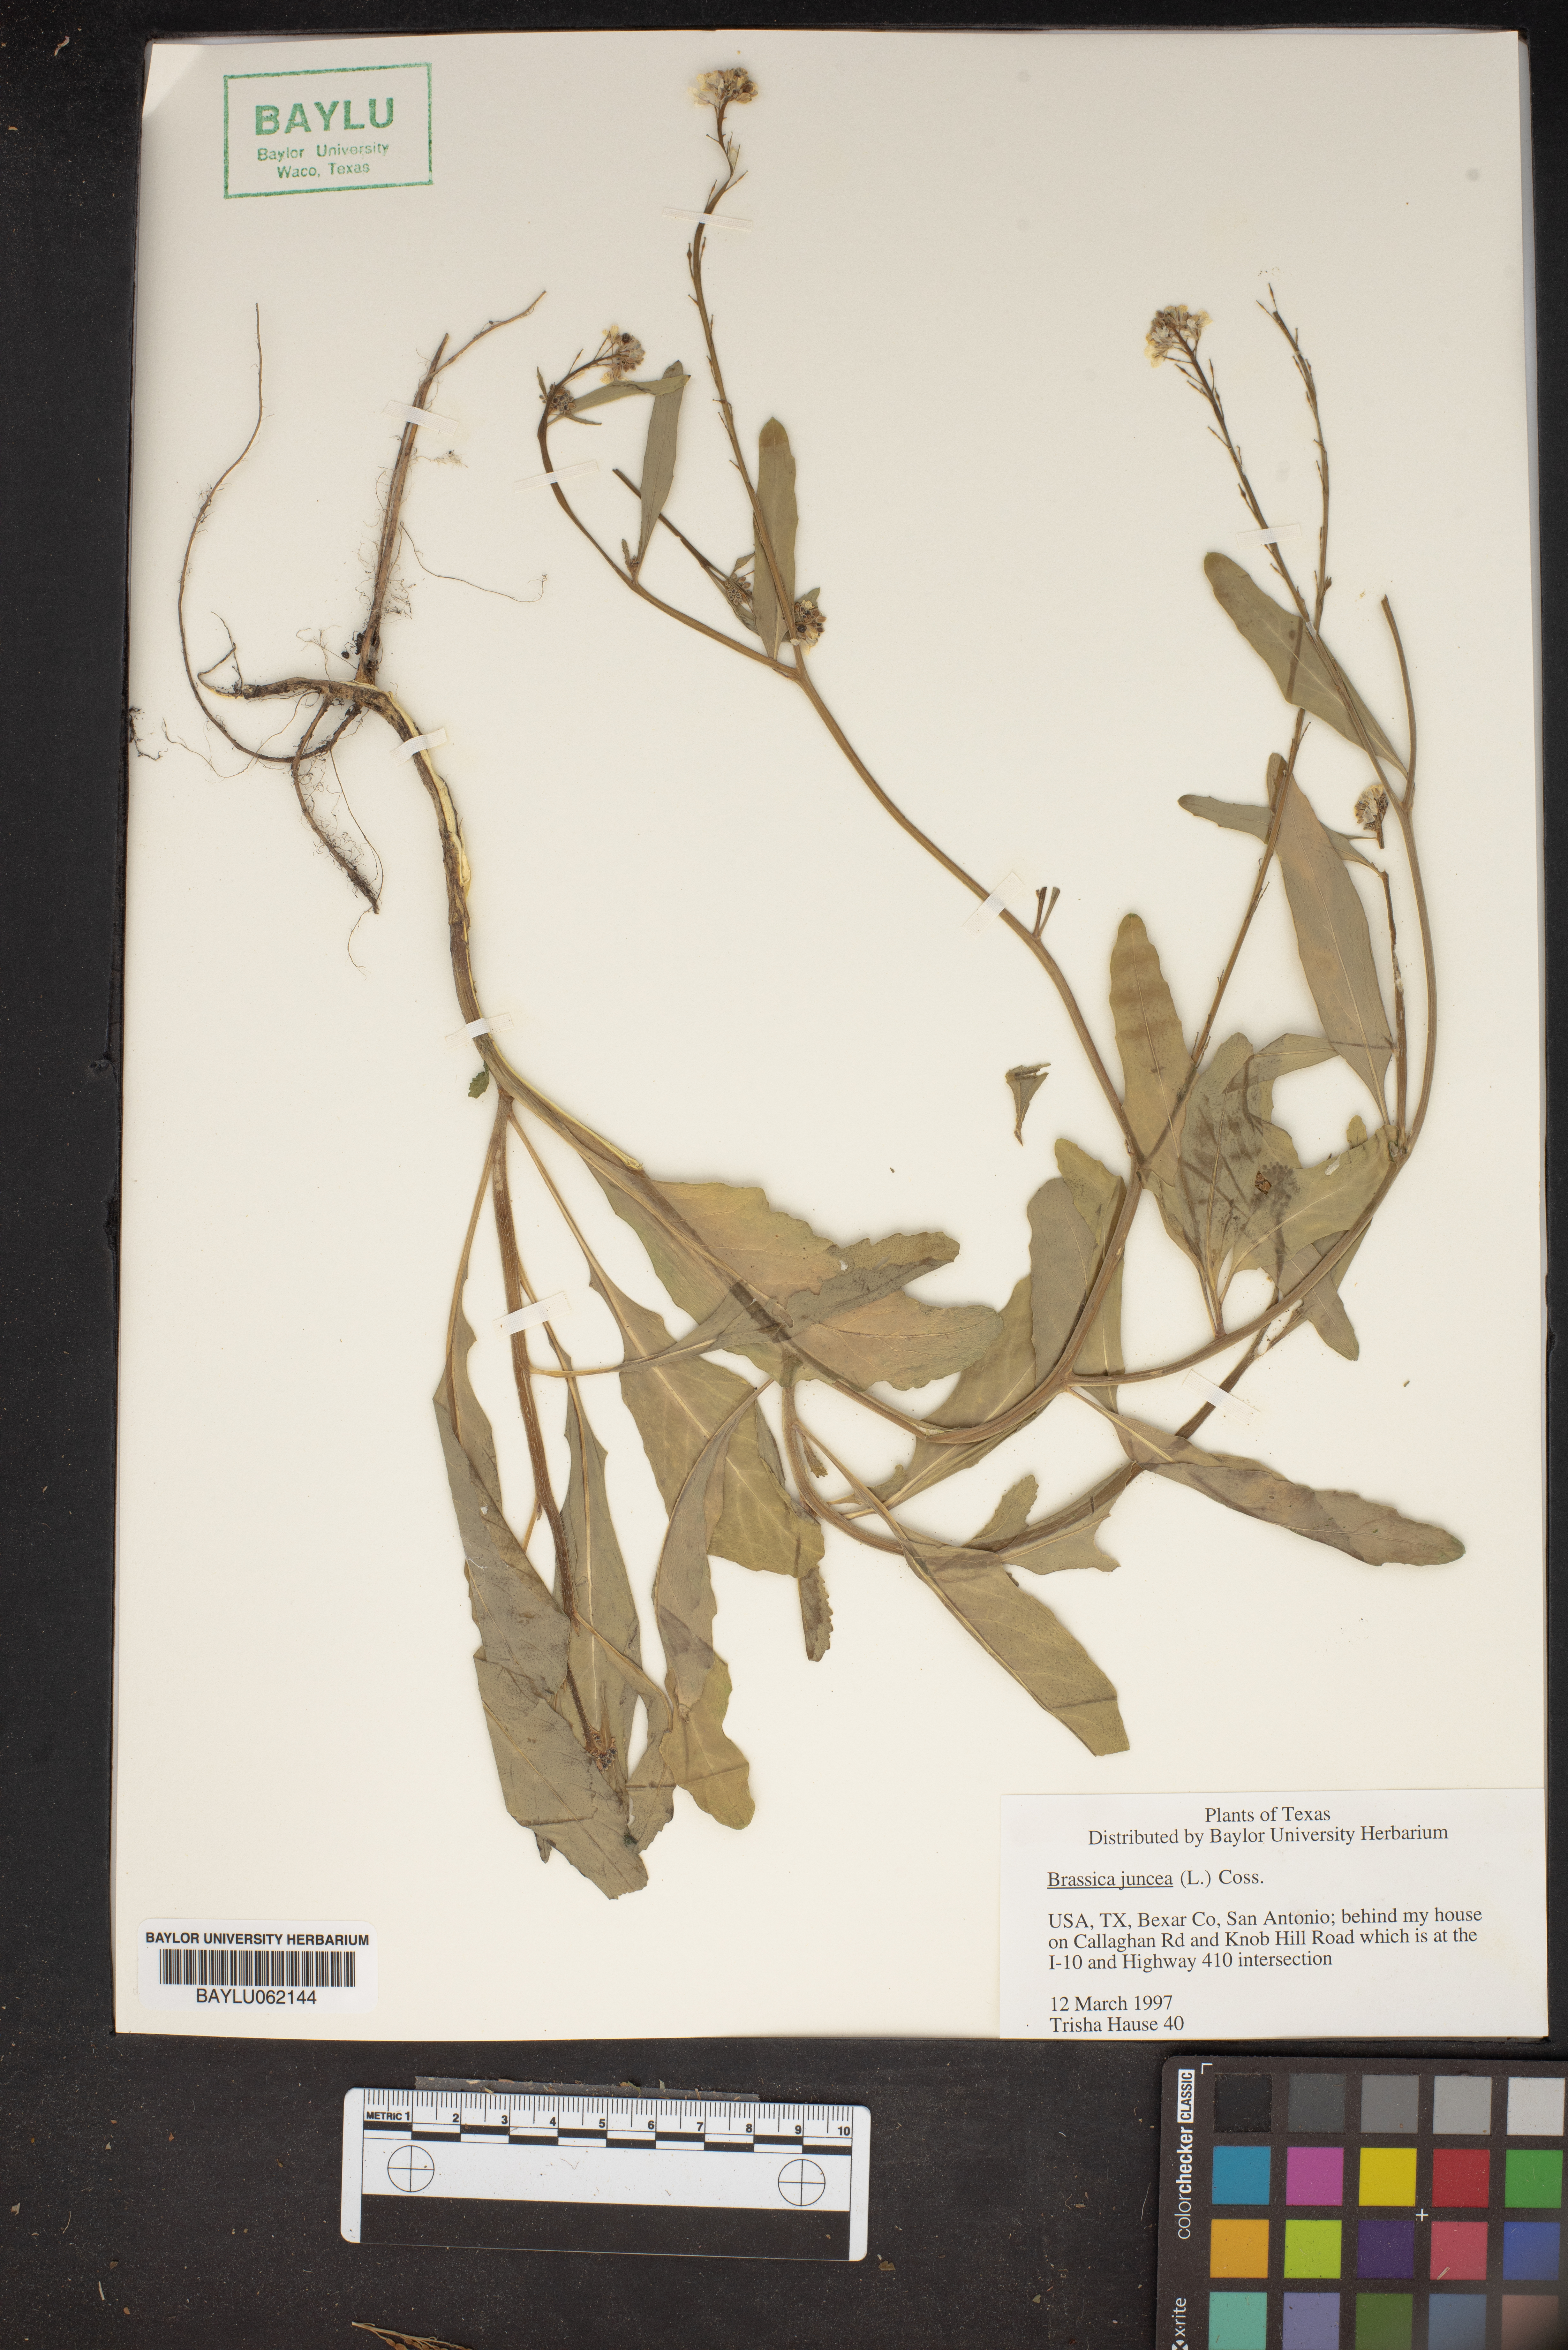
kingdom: Plantae
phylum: Tracheophyta
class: Magnoliopsida
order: Brassicales
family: Brassicaceae
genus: Brassica
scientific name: Brassica juncea
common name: Brown mustard
